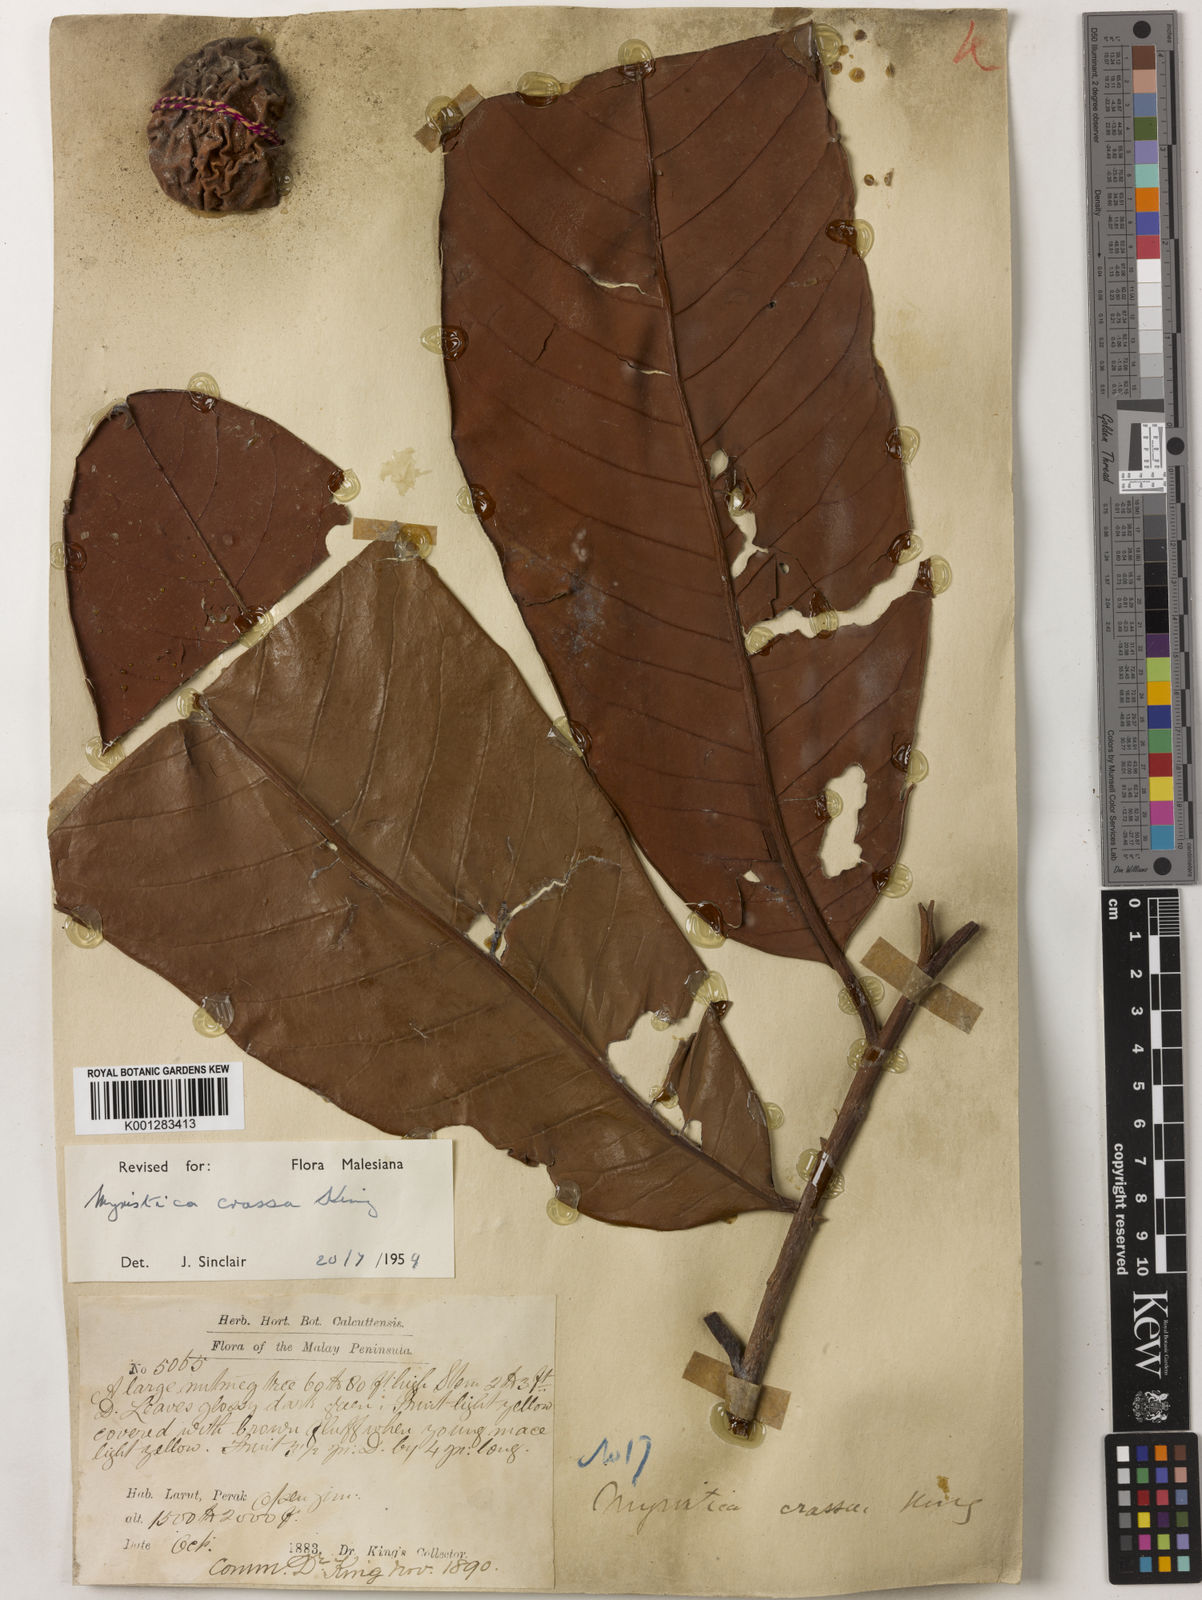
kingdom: Plantae
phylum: Tracheophyta
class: Magnoliopsida
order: Magnoliales
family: Myristicaceae
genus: Myristica
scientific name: Myristica crassa
